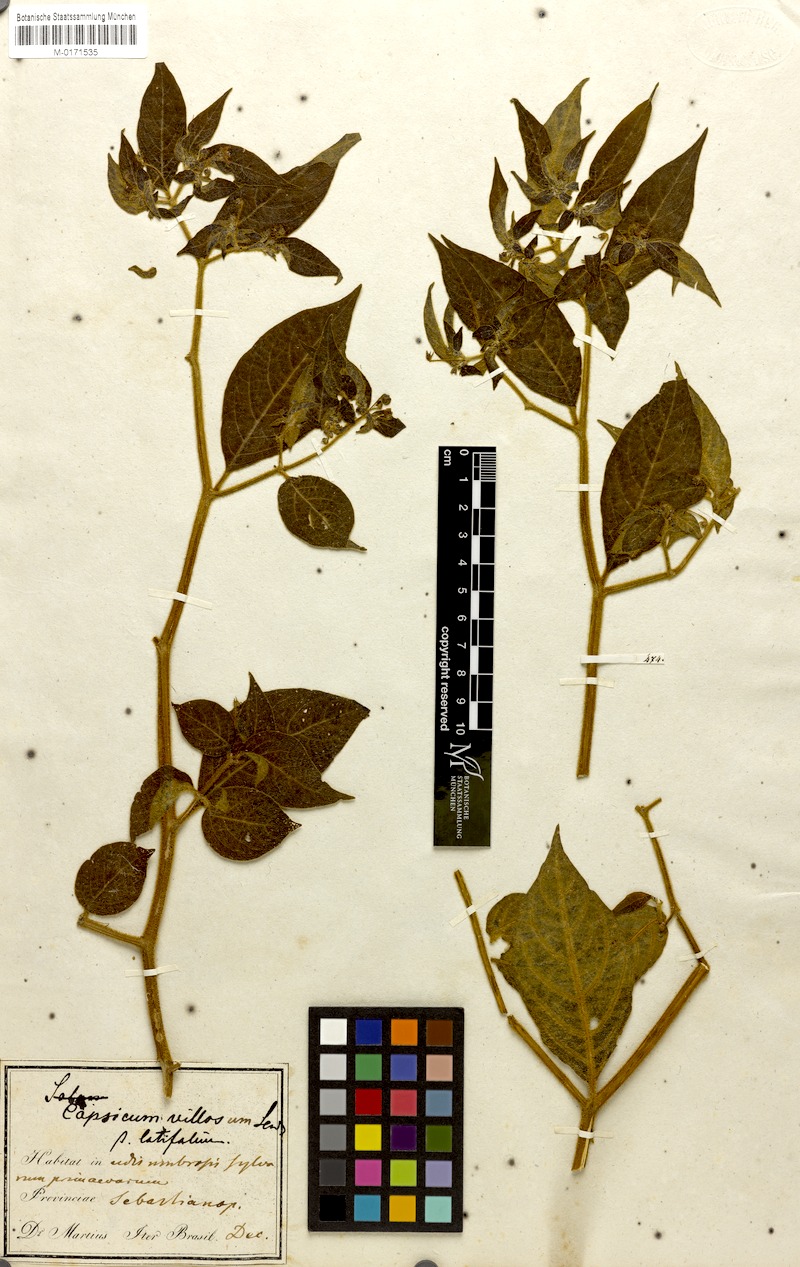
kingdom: Plantae
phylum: Tracheophyta
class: Magnoliopsida
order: Solanales
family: Solanaceae
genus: Capsicum
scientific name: Capsicum villosum
